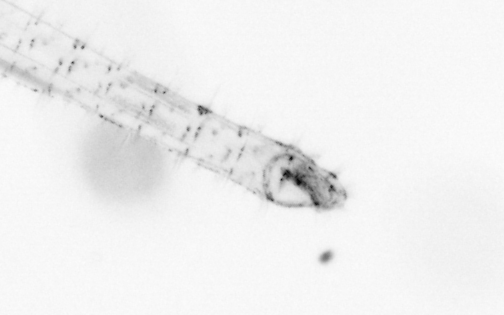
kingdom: Animalia
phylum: Chaetognatha
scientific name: Chaetognatha
